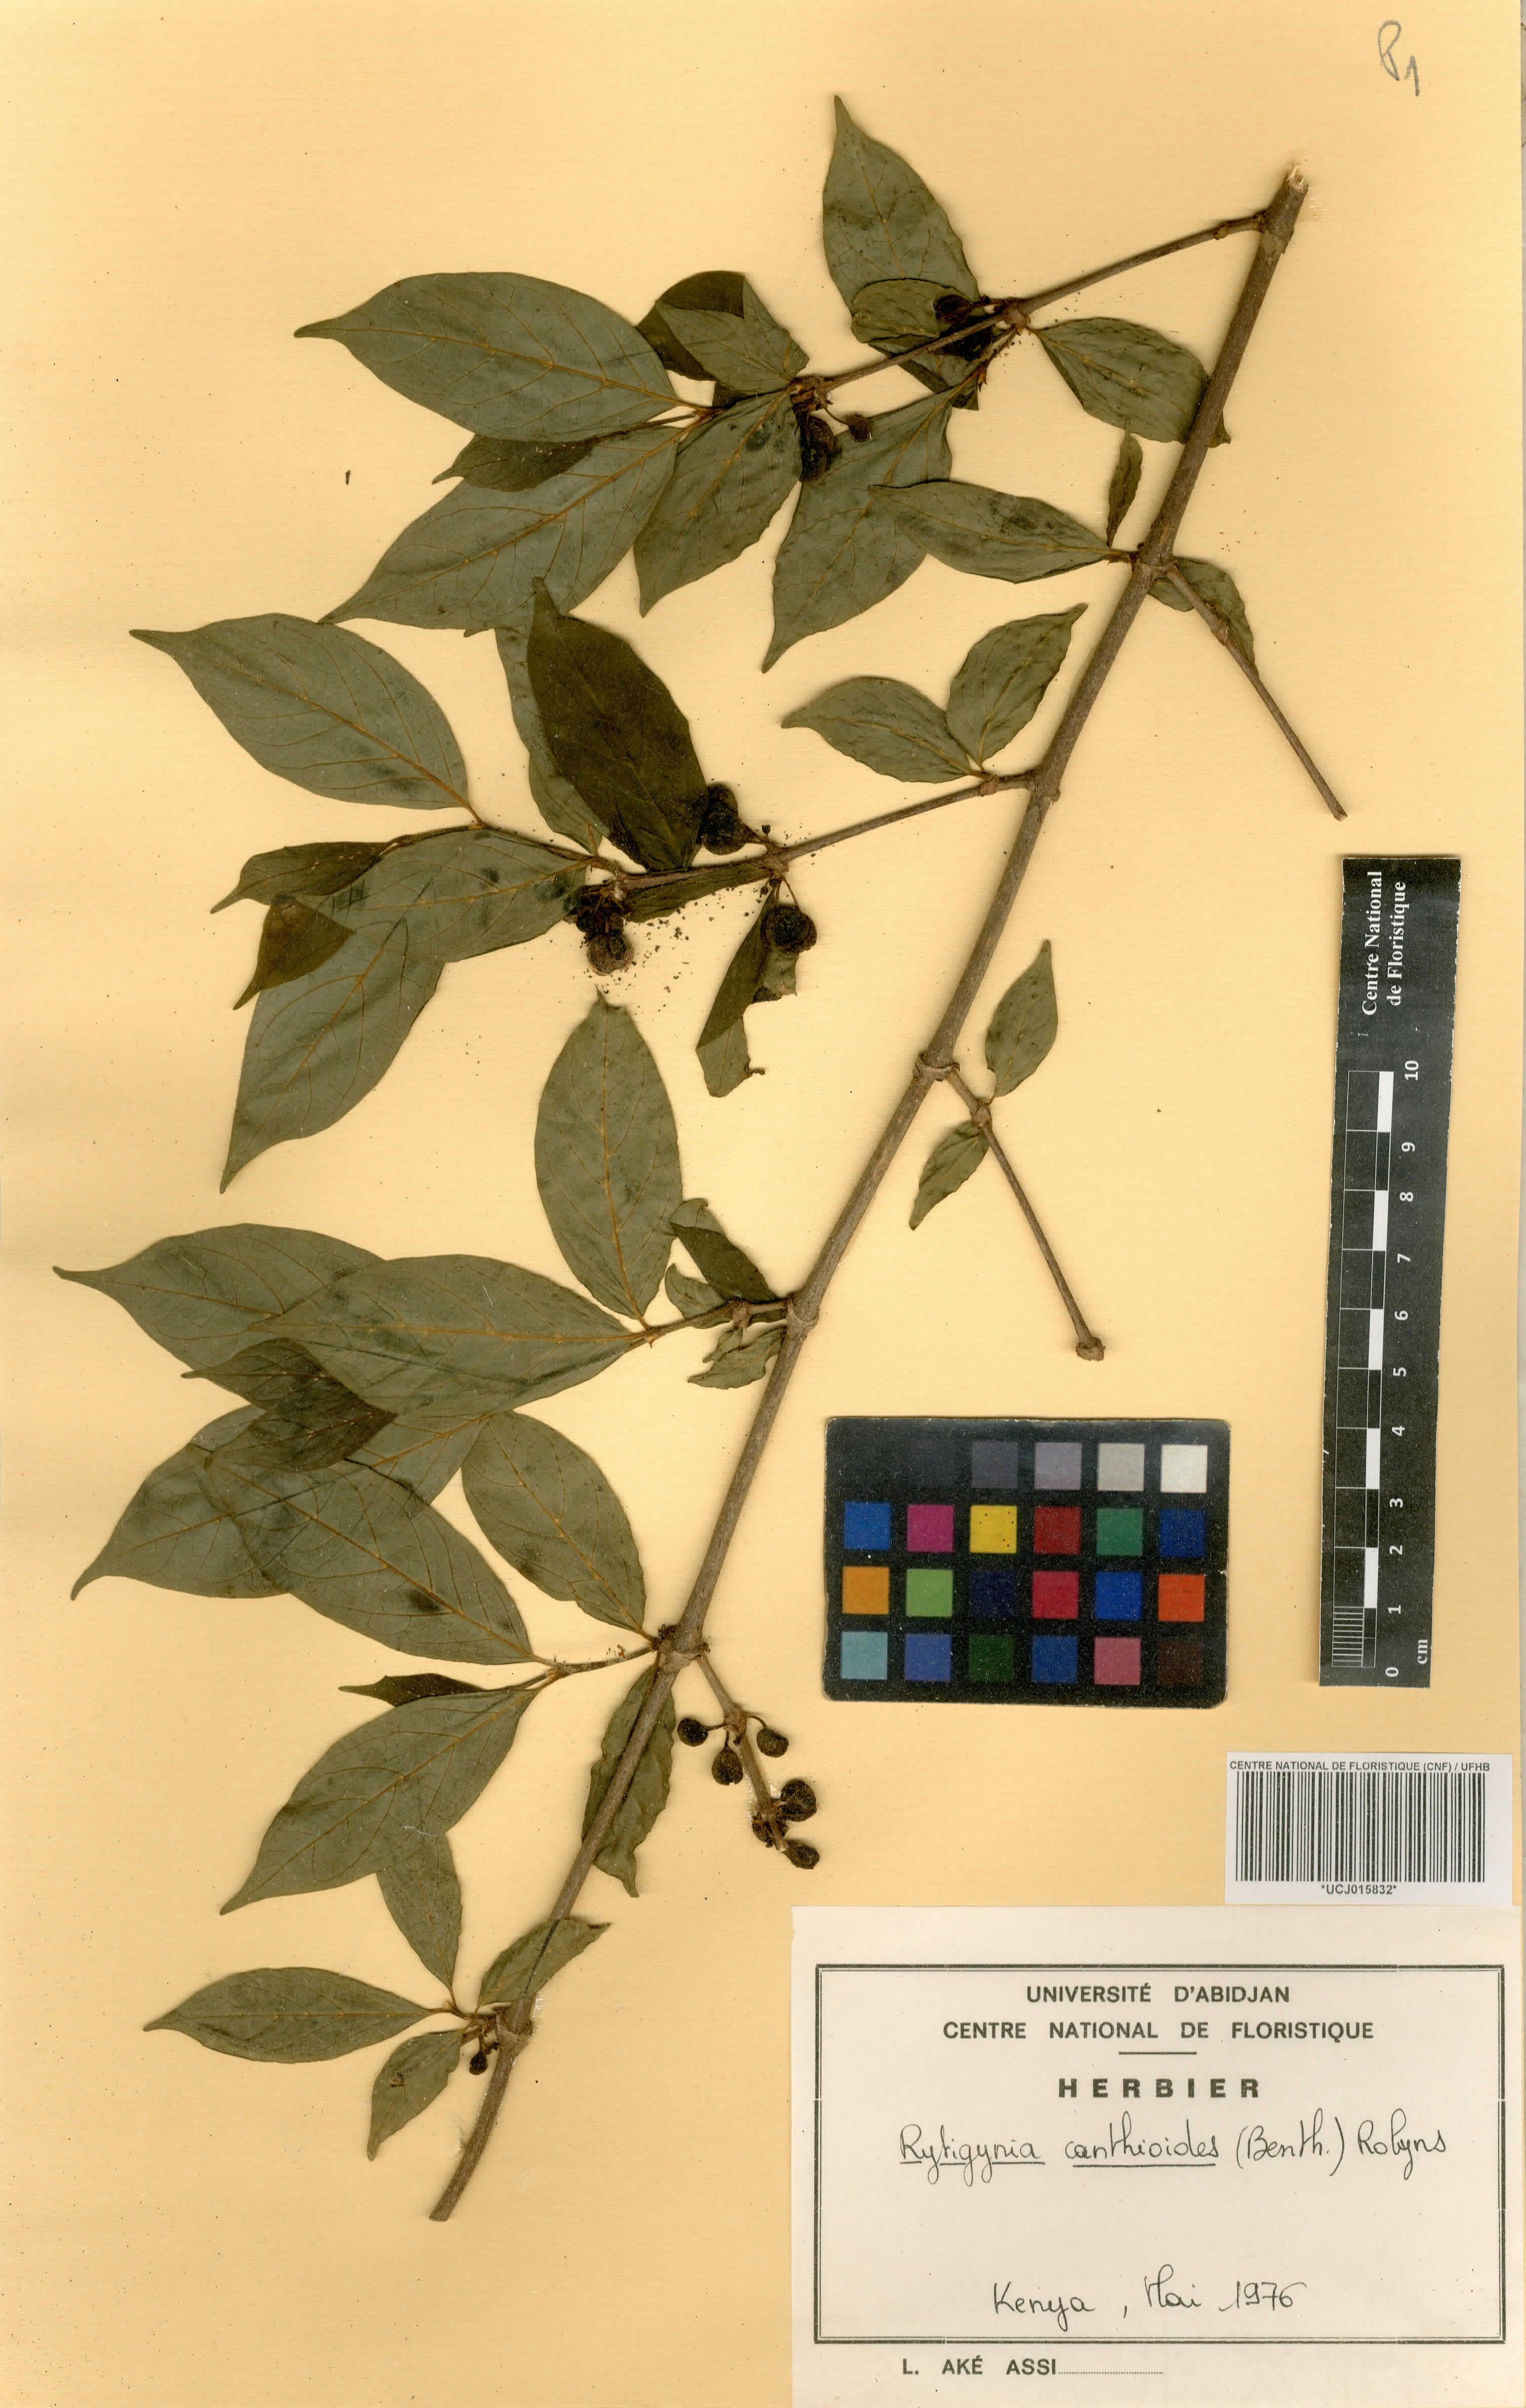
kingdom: Plantae
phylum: Tracheophyta
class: Magnoliopsida
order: Gentianales
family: Rubiaceae
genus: Rytigynia
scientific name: Rytigynia canthioides
